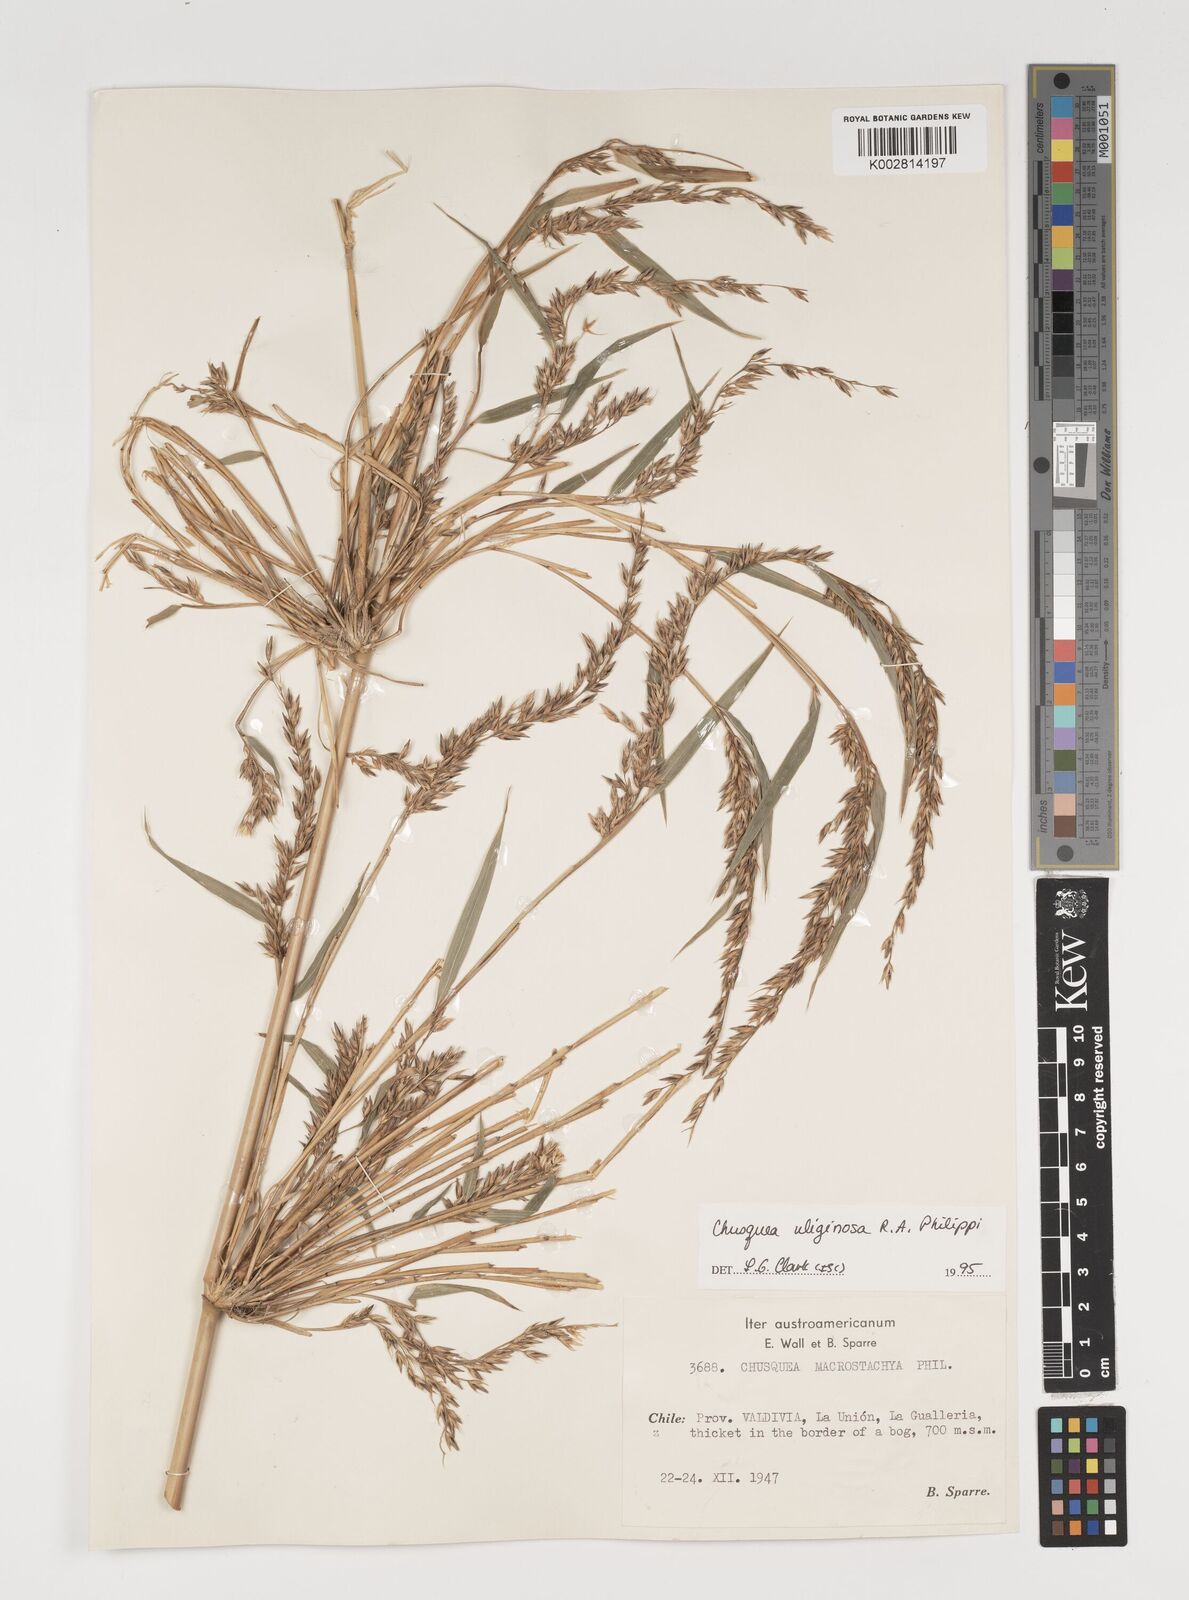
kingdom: Plantae
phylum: Tracheophyta
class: Liliopsida
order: Poales
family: Poaceae
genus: Chusquea
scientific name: Chusquea uliginosa
